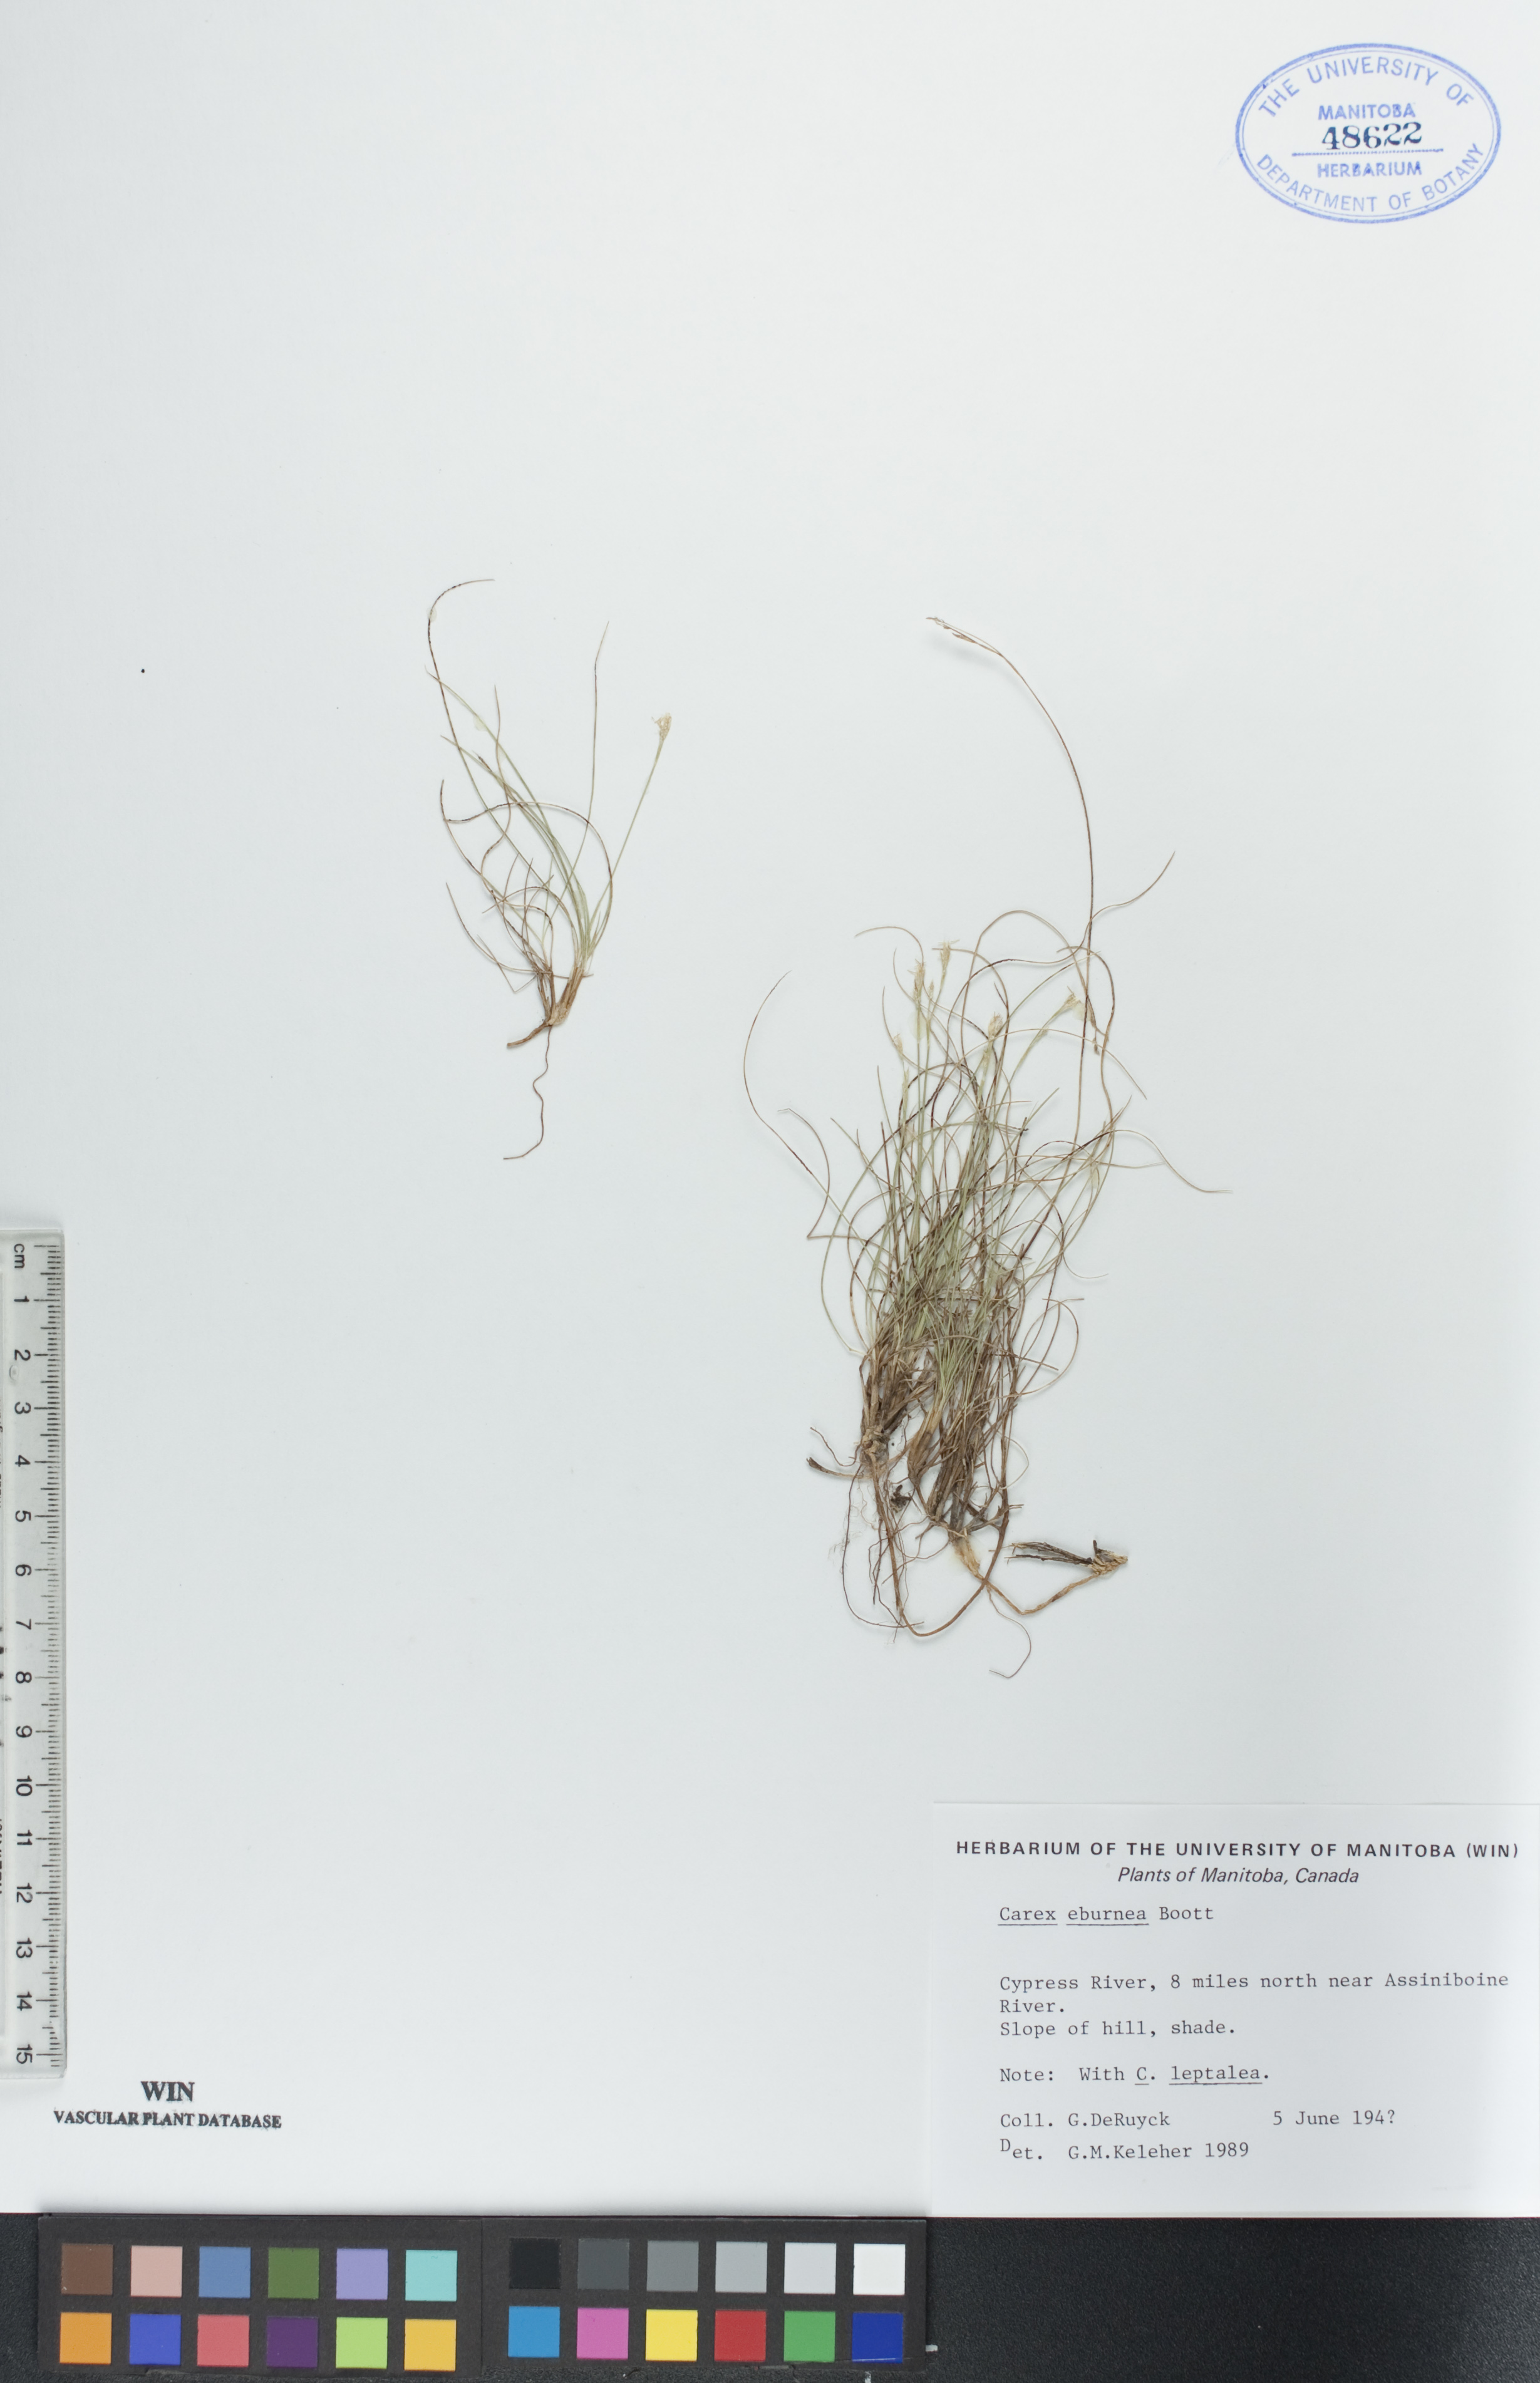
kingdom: Plantae
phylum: Tracheophyta
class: Liliopsida
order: Poales
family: Cyperaceae
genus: Carex
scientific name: Carex eburnea
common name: Bristle-leaved sedge
